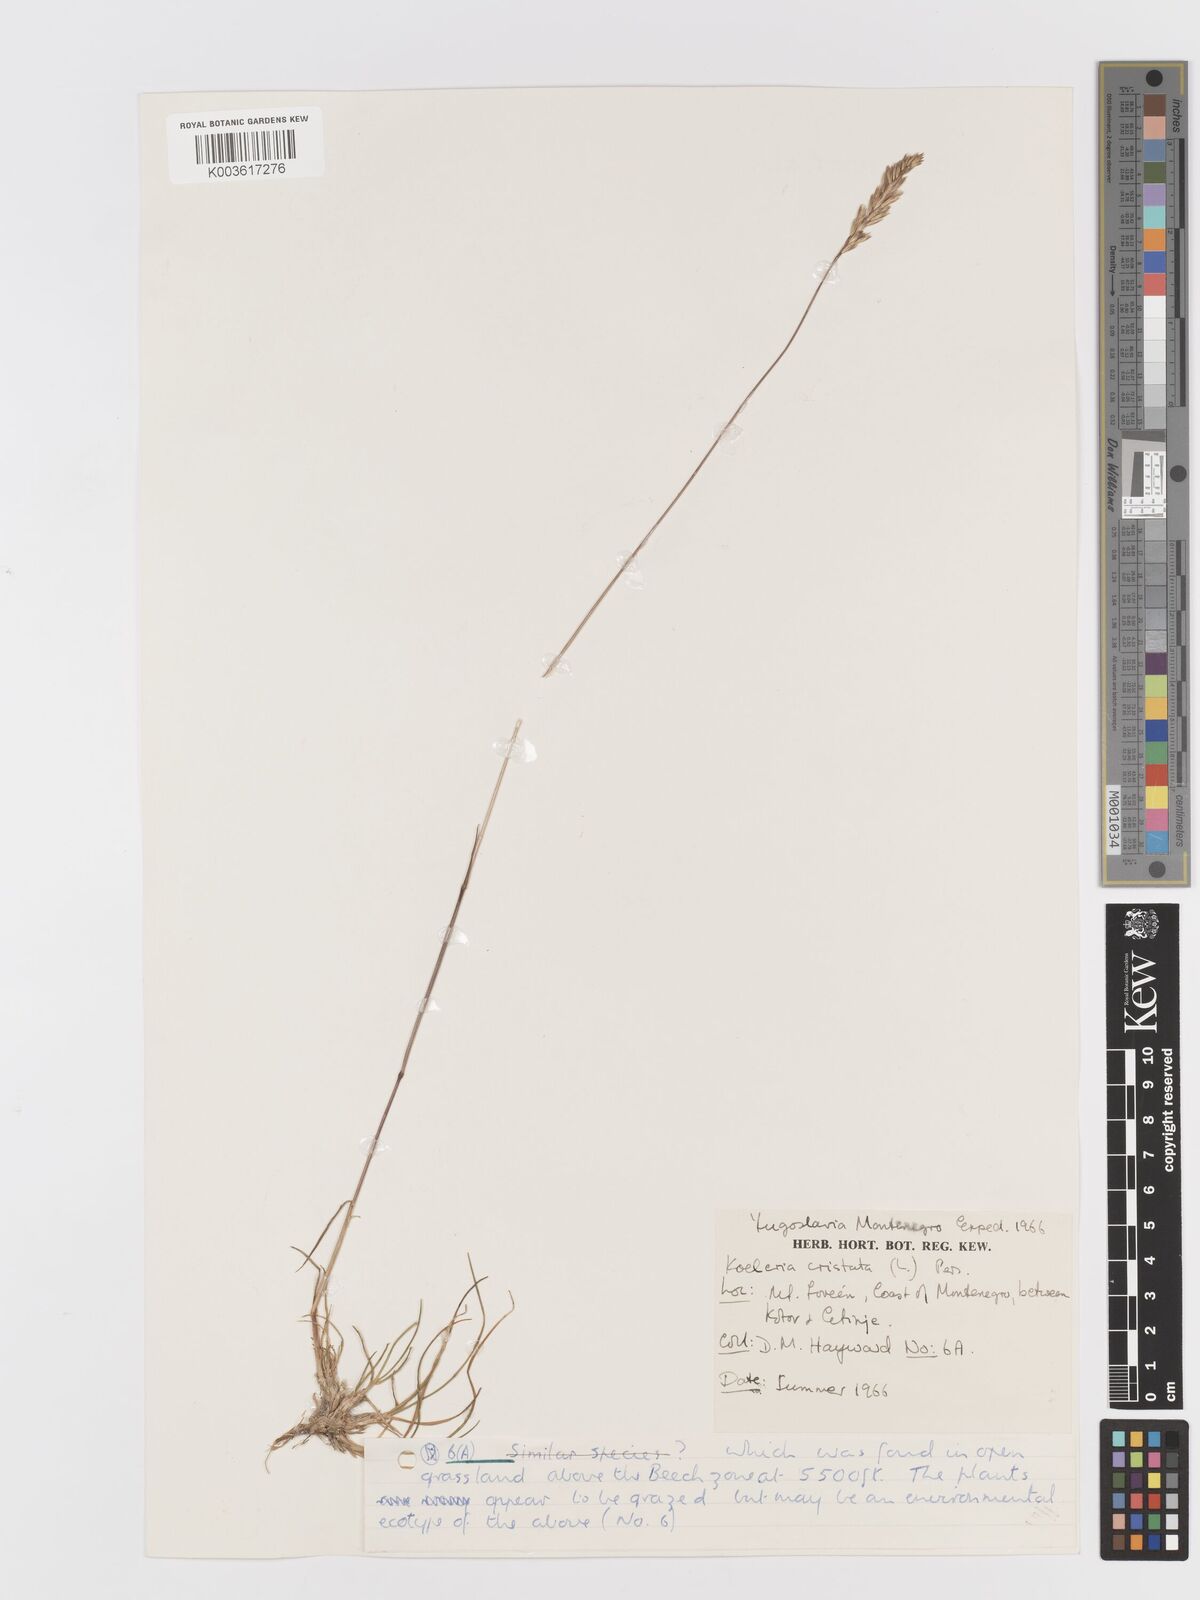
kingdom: Plantae
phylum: Tracheophyta
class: Liliopsida
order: Poales
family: Poaceae
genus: Koeleria
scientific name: Koeleria macrantha
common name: Crested hair-grass
